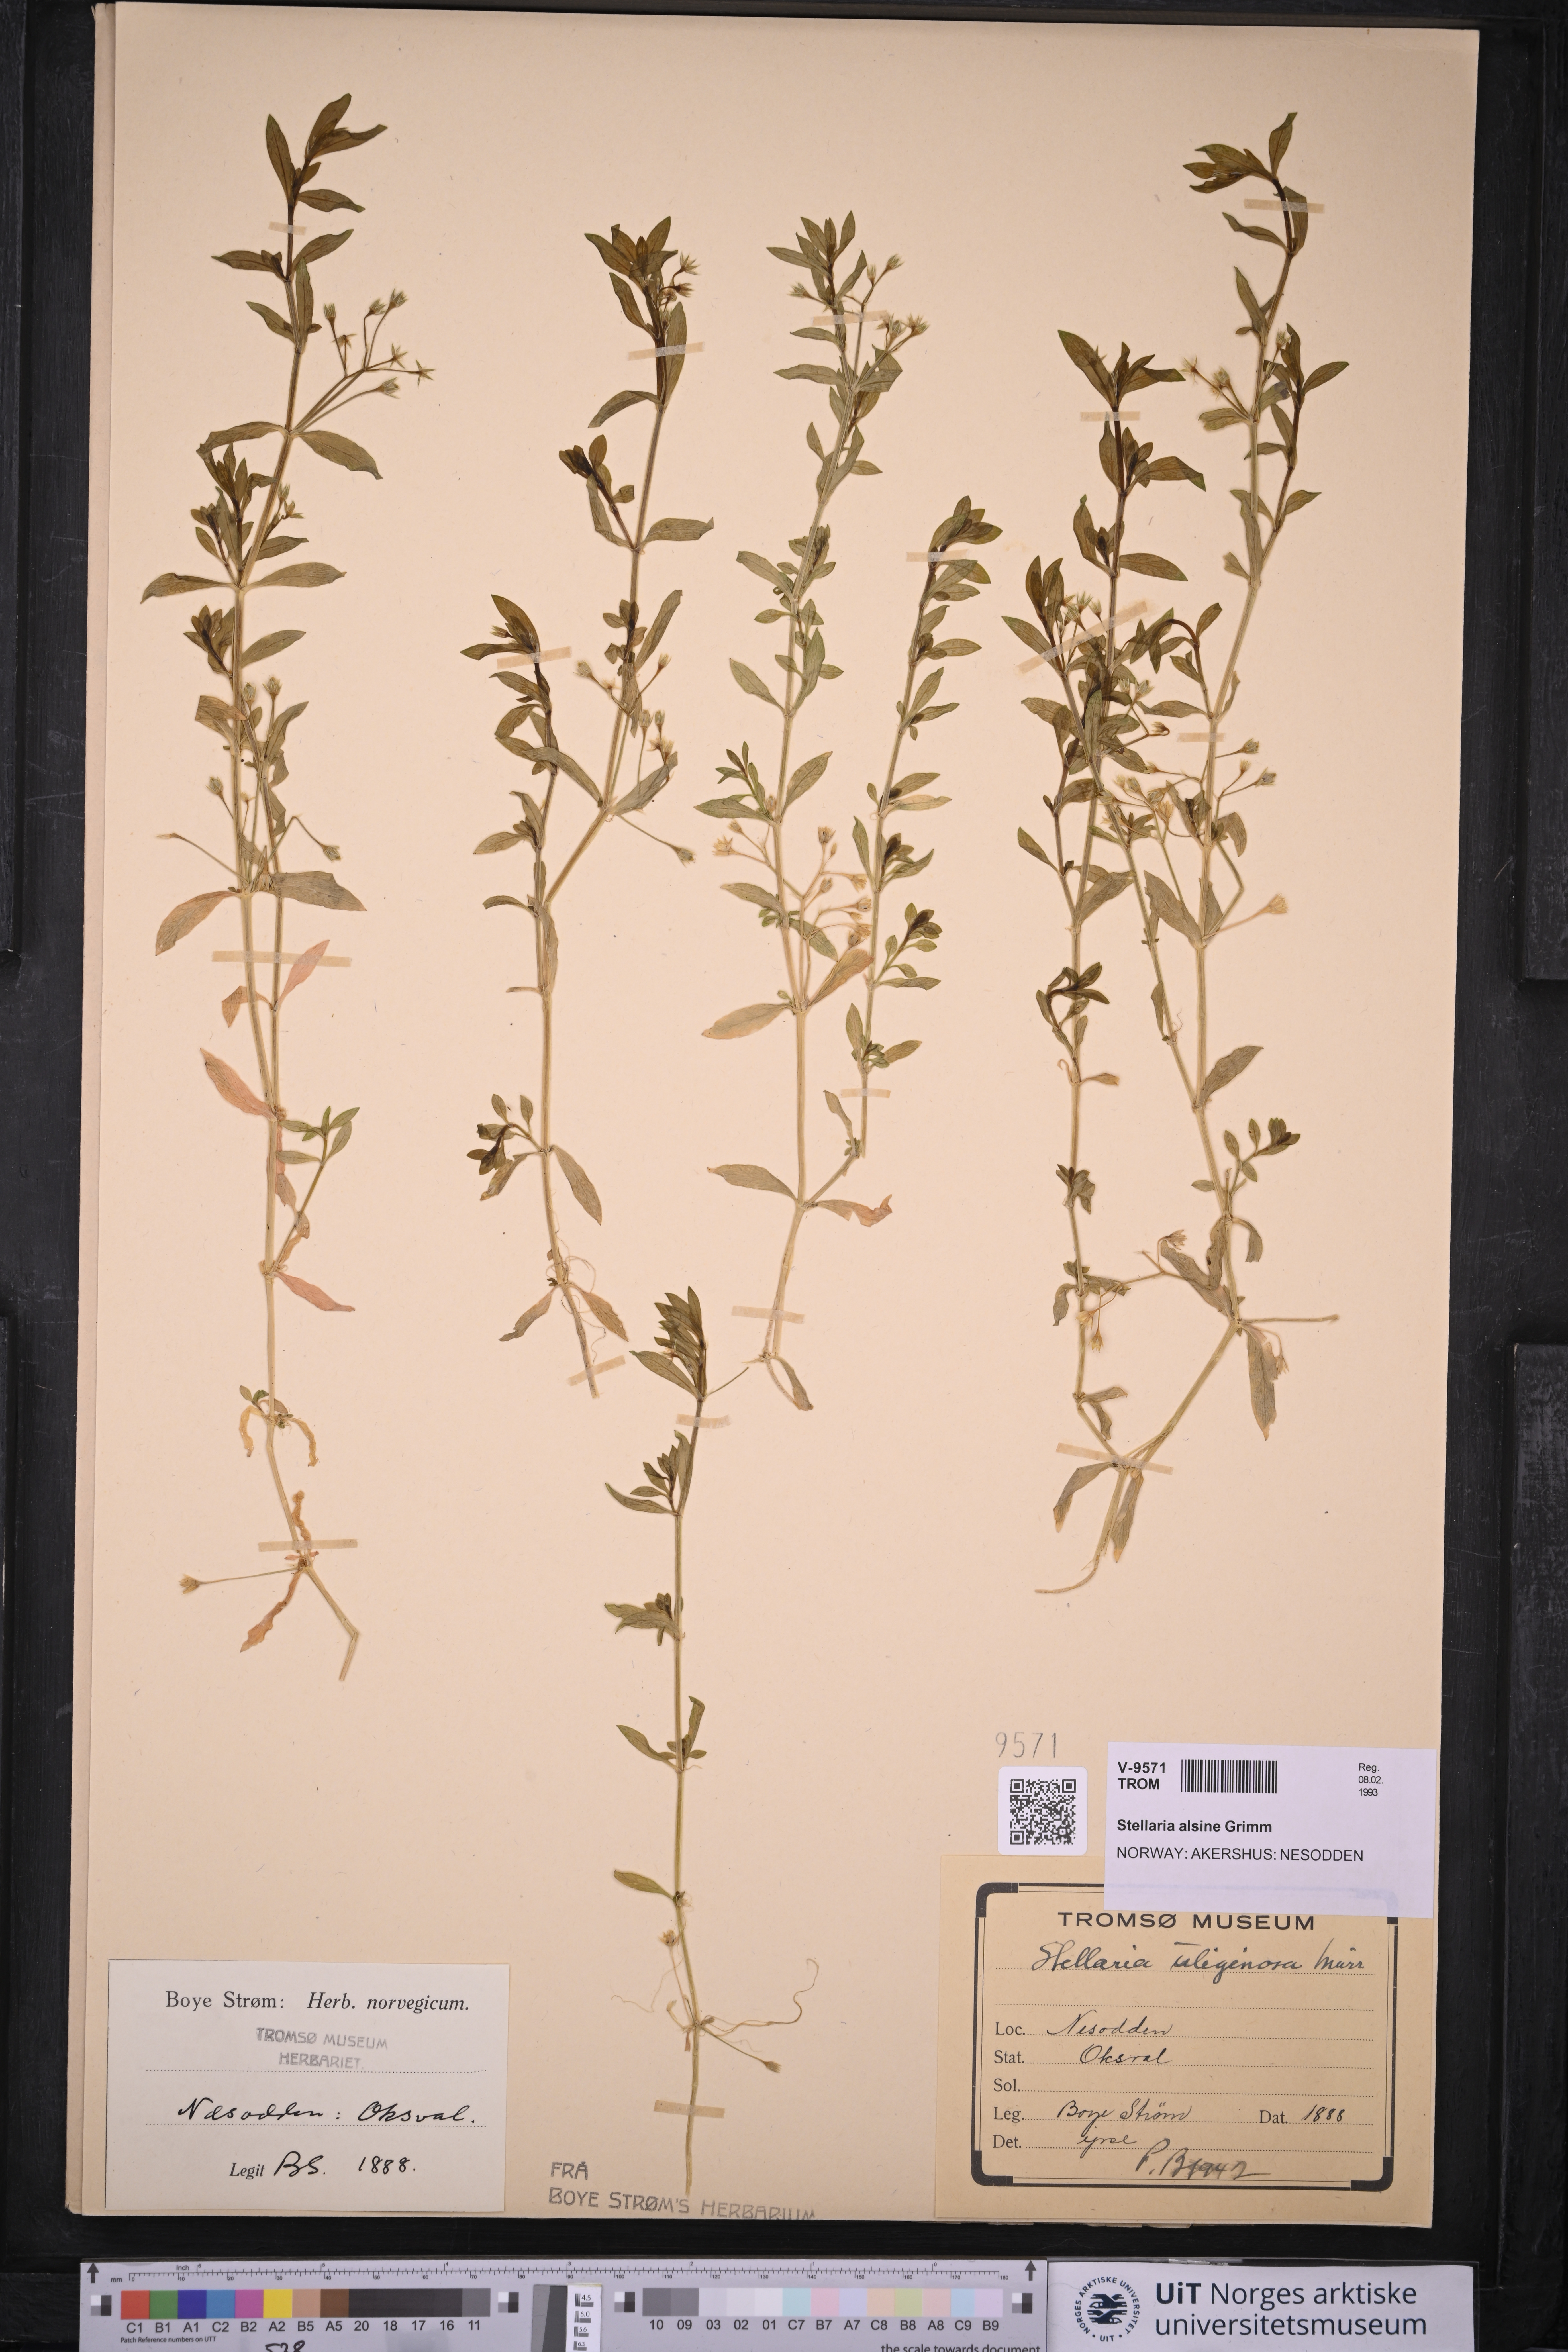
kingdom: Plantae
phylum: Tracheophyta
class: Magnoliopsida
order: Caryophyllales
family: Caryophyllaceae
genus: Stellaria
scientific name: Stellaria alsine
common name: Bog stitchwort
